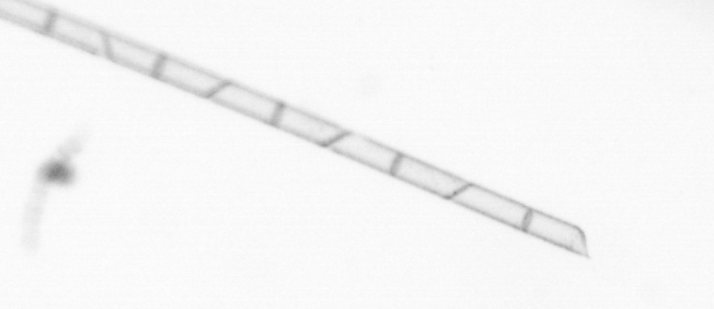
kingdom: Chromista
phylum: Ochrophyta
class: Bacillariophyceae
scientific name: Bacillariophyceae
